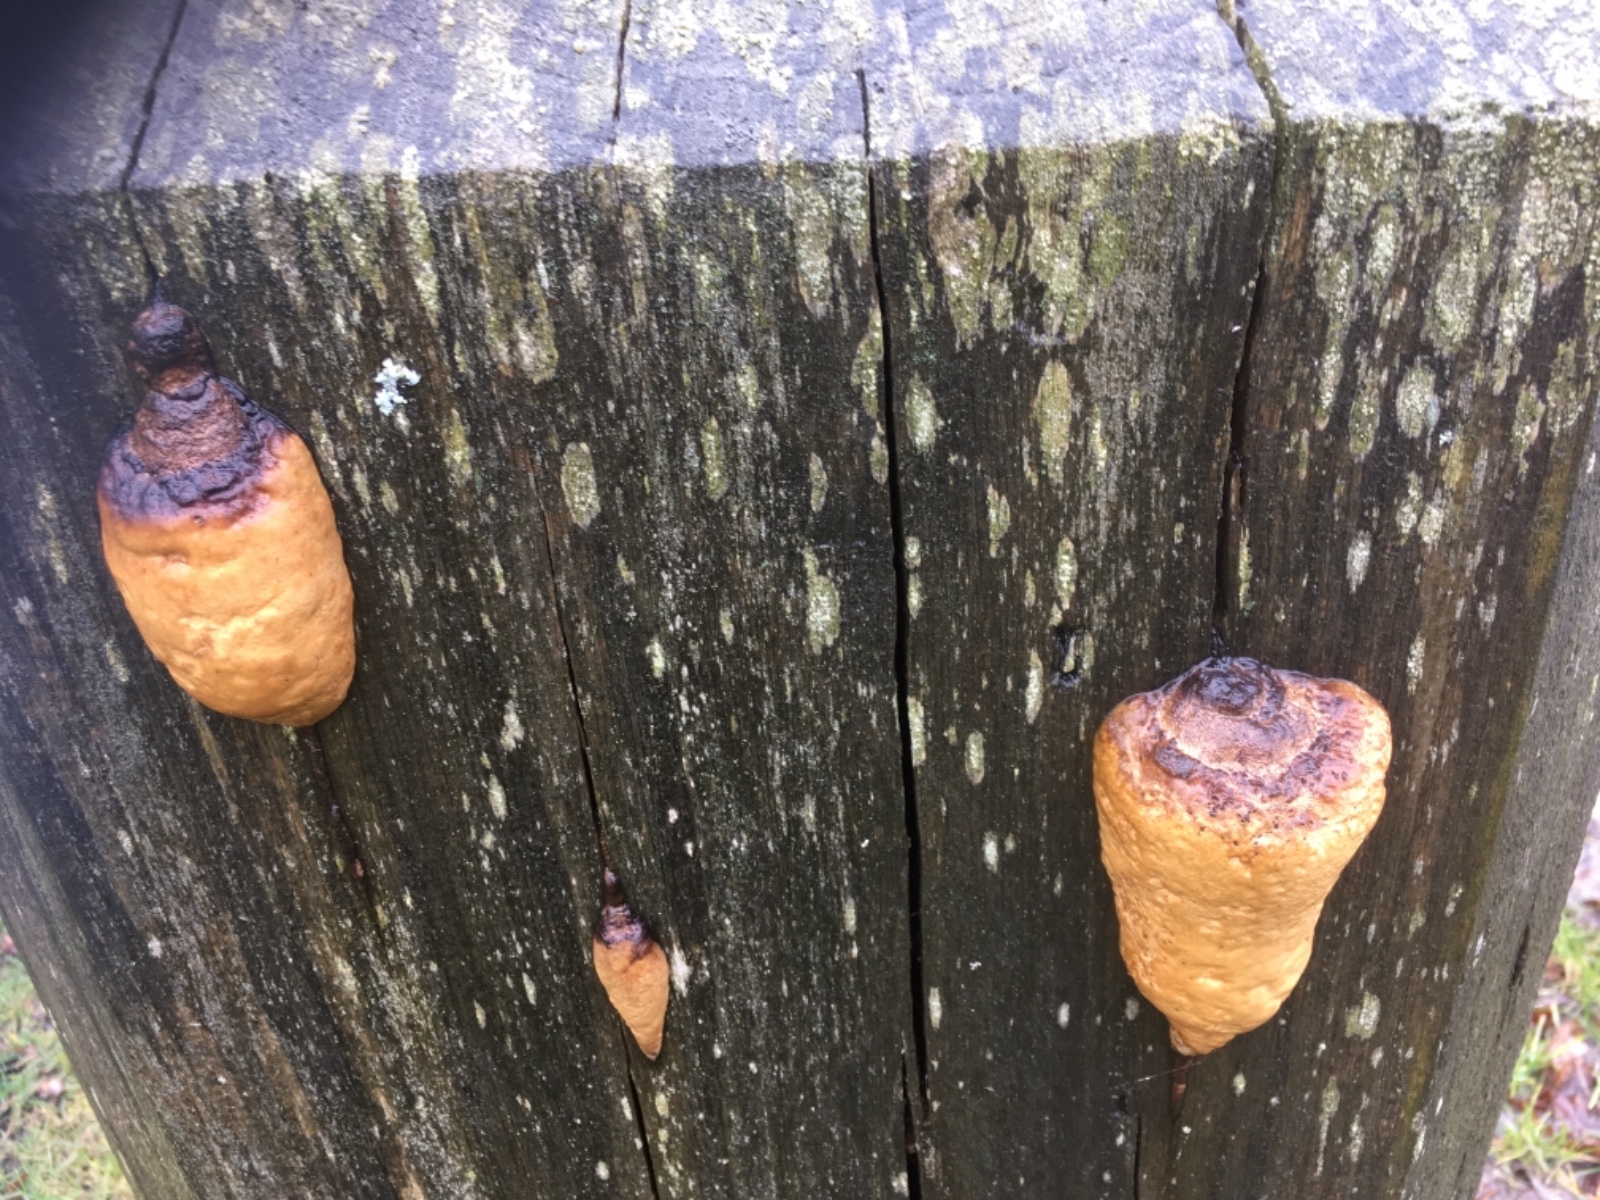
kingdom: Fungi
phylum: Basidiomycota
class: Agaricomycetes
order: Polyporales
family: Fomitopsidaceae
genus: Fomitopsis
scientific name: Fomitopsis pinicola
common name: randbæltet hovporesvamp
